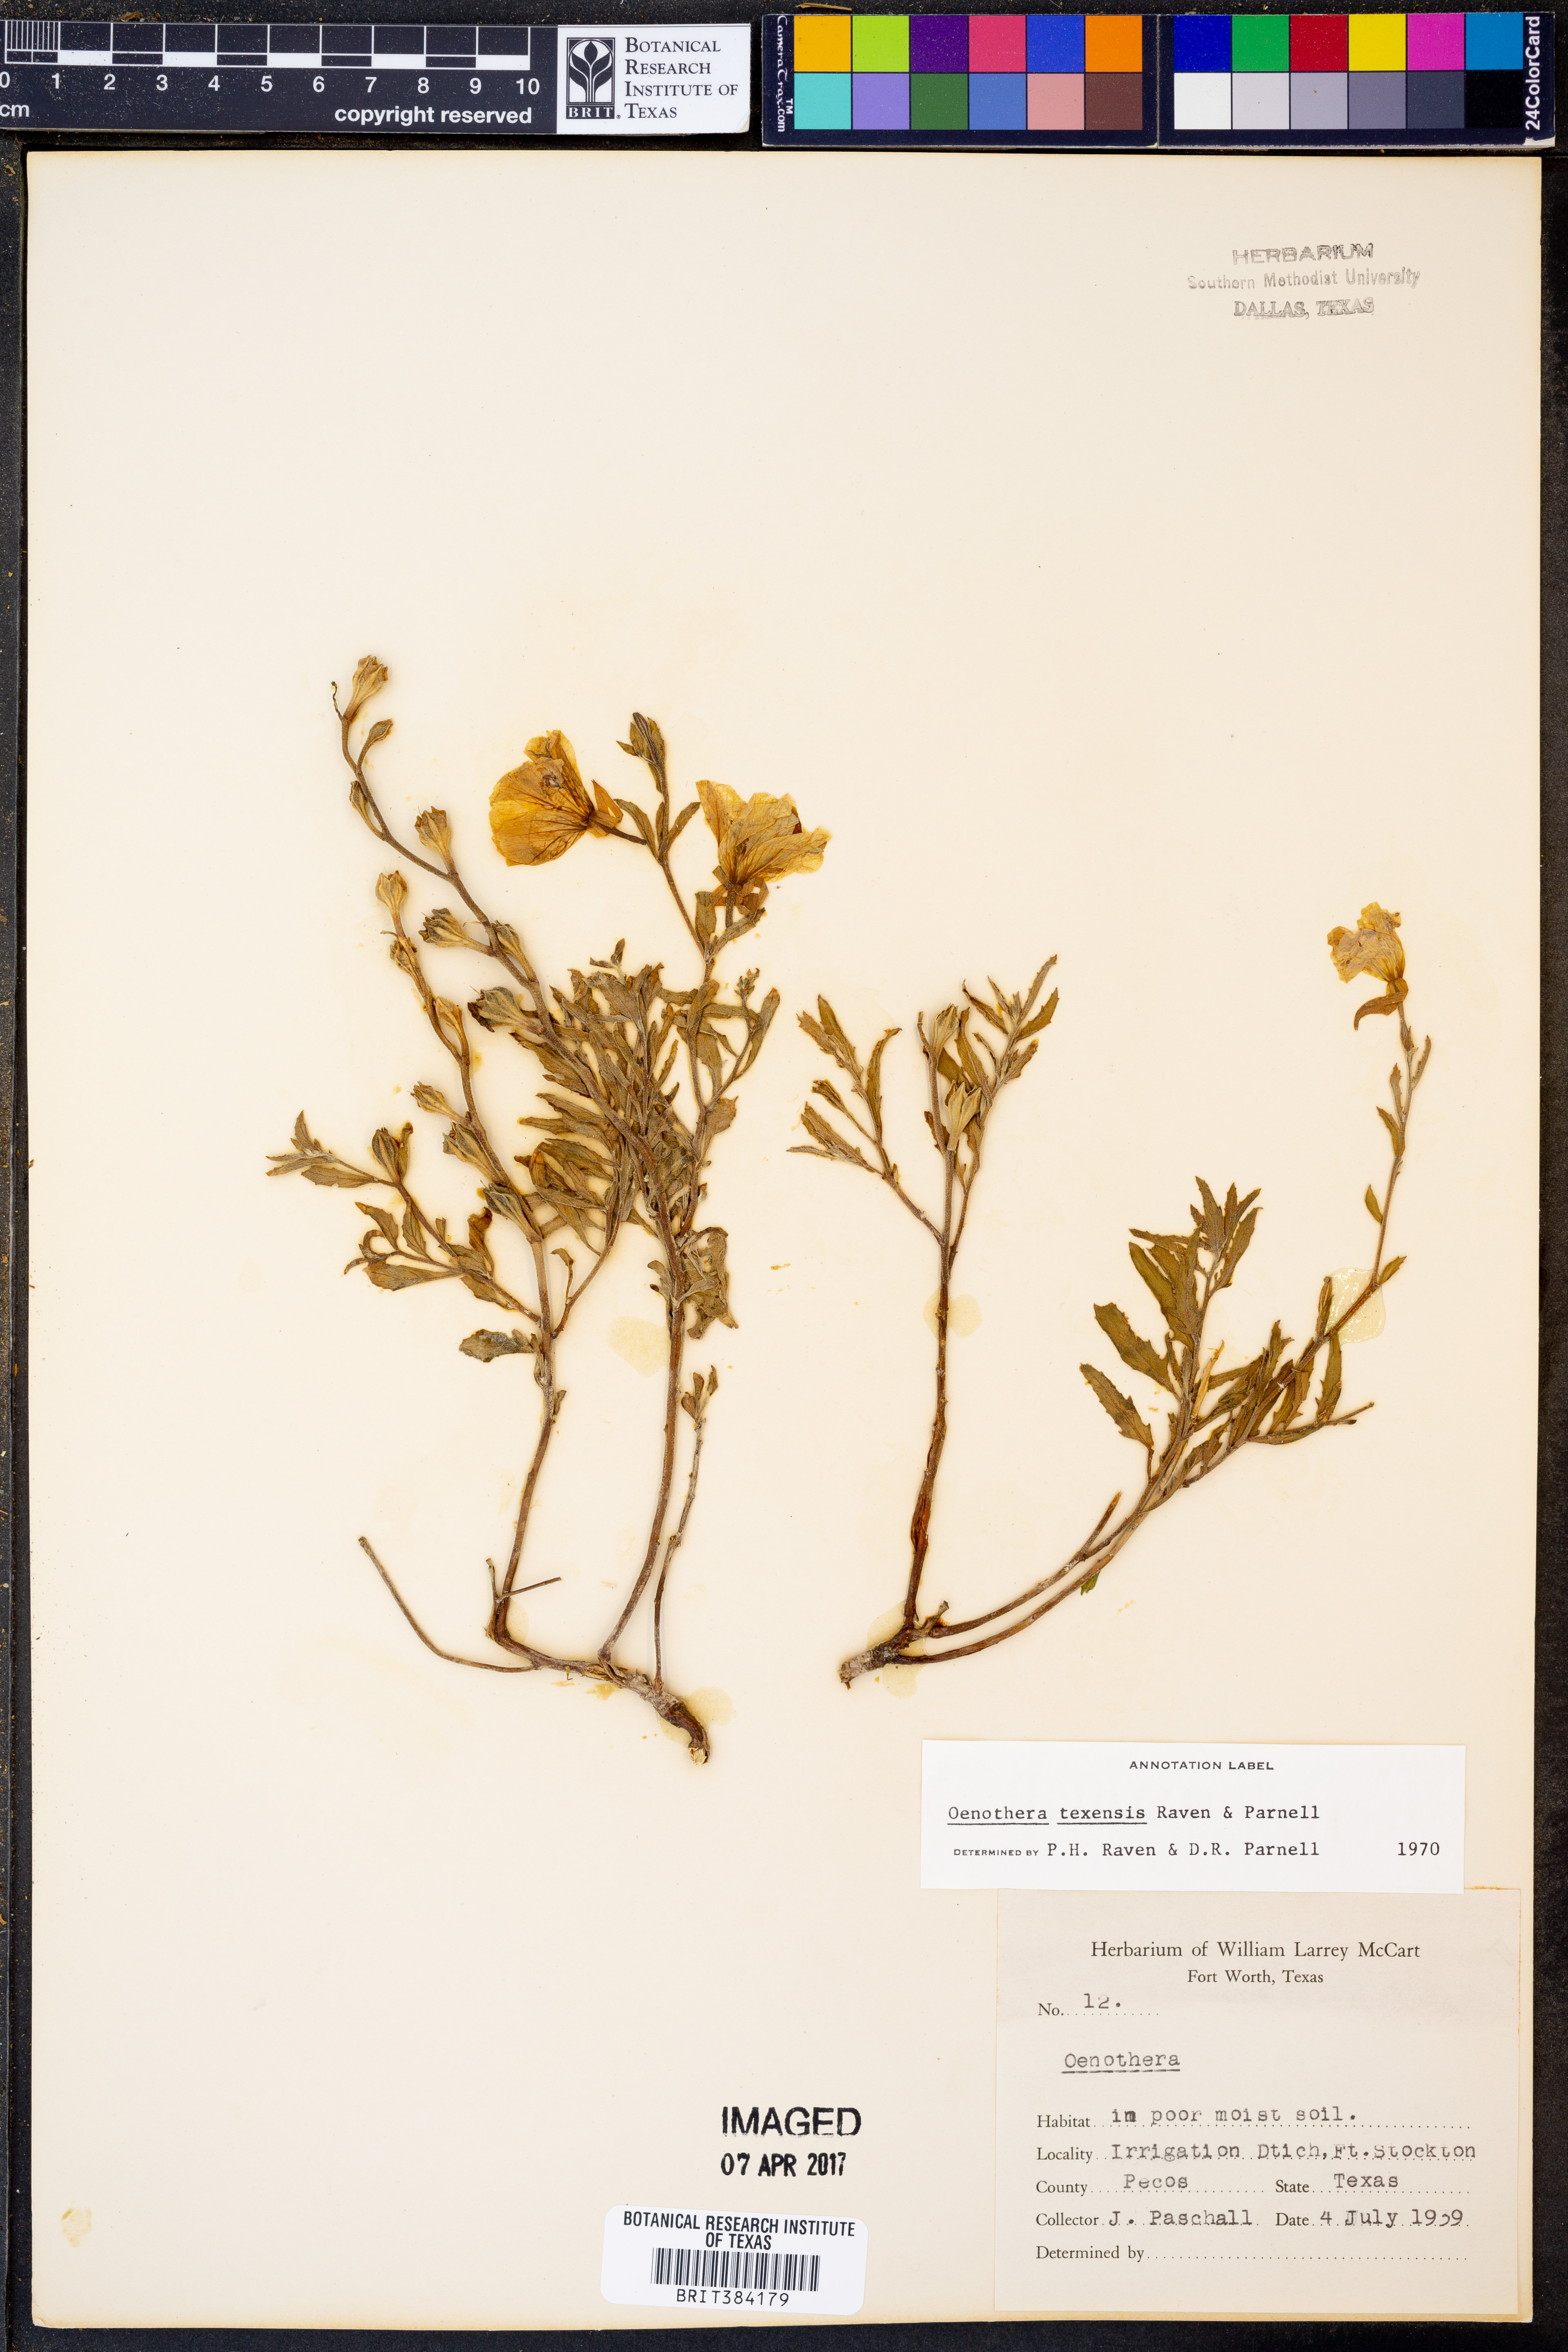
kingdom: Plantae
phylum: Tracheophyta
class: Magnoliopsida
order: Myrtales
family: Onagraceae
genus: Oenothera
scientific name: Oenothera texensis
